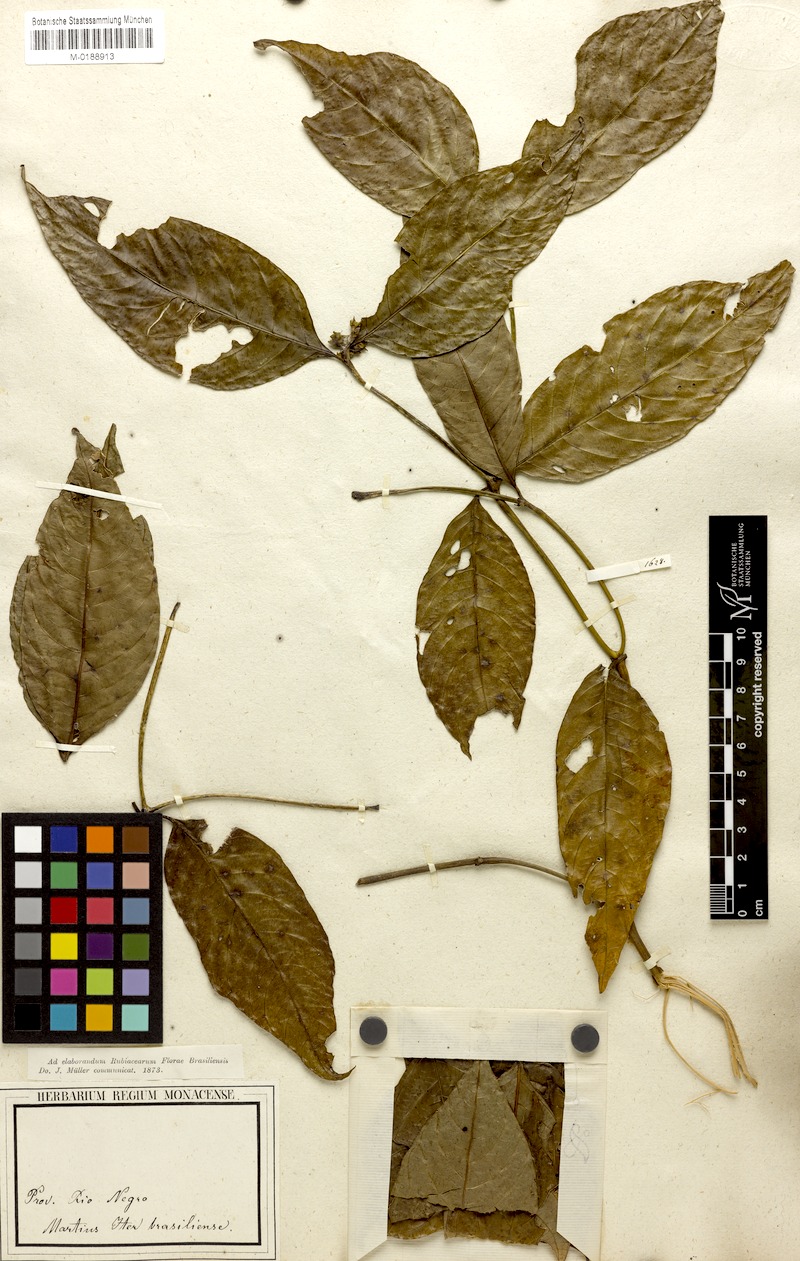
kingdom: Plantae
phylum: Tracheophyta
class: Magnoliopsida
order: Gentianales
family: Rubiaceae
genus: Palicourea
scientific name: Palicourea gracilenta
